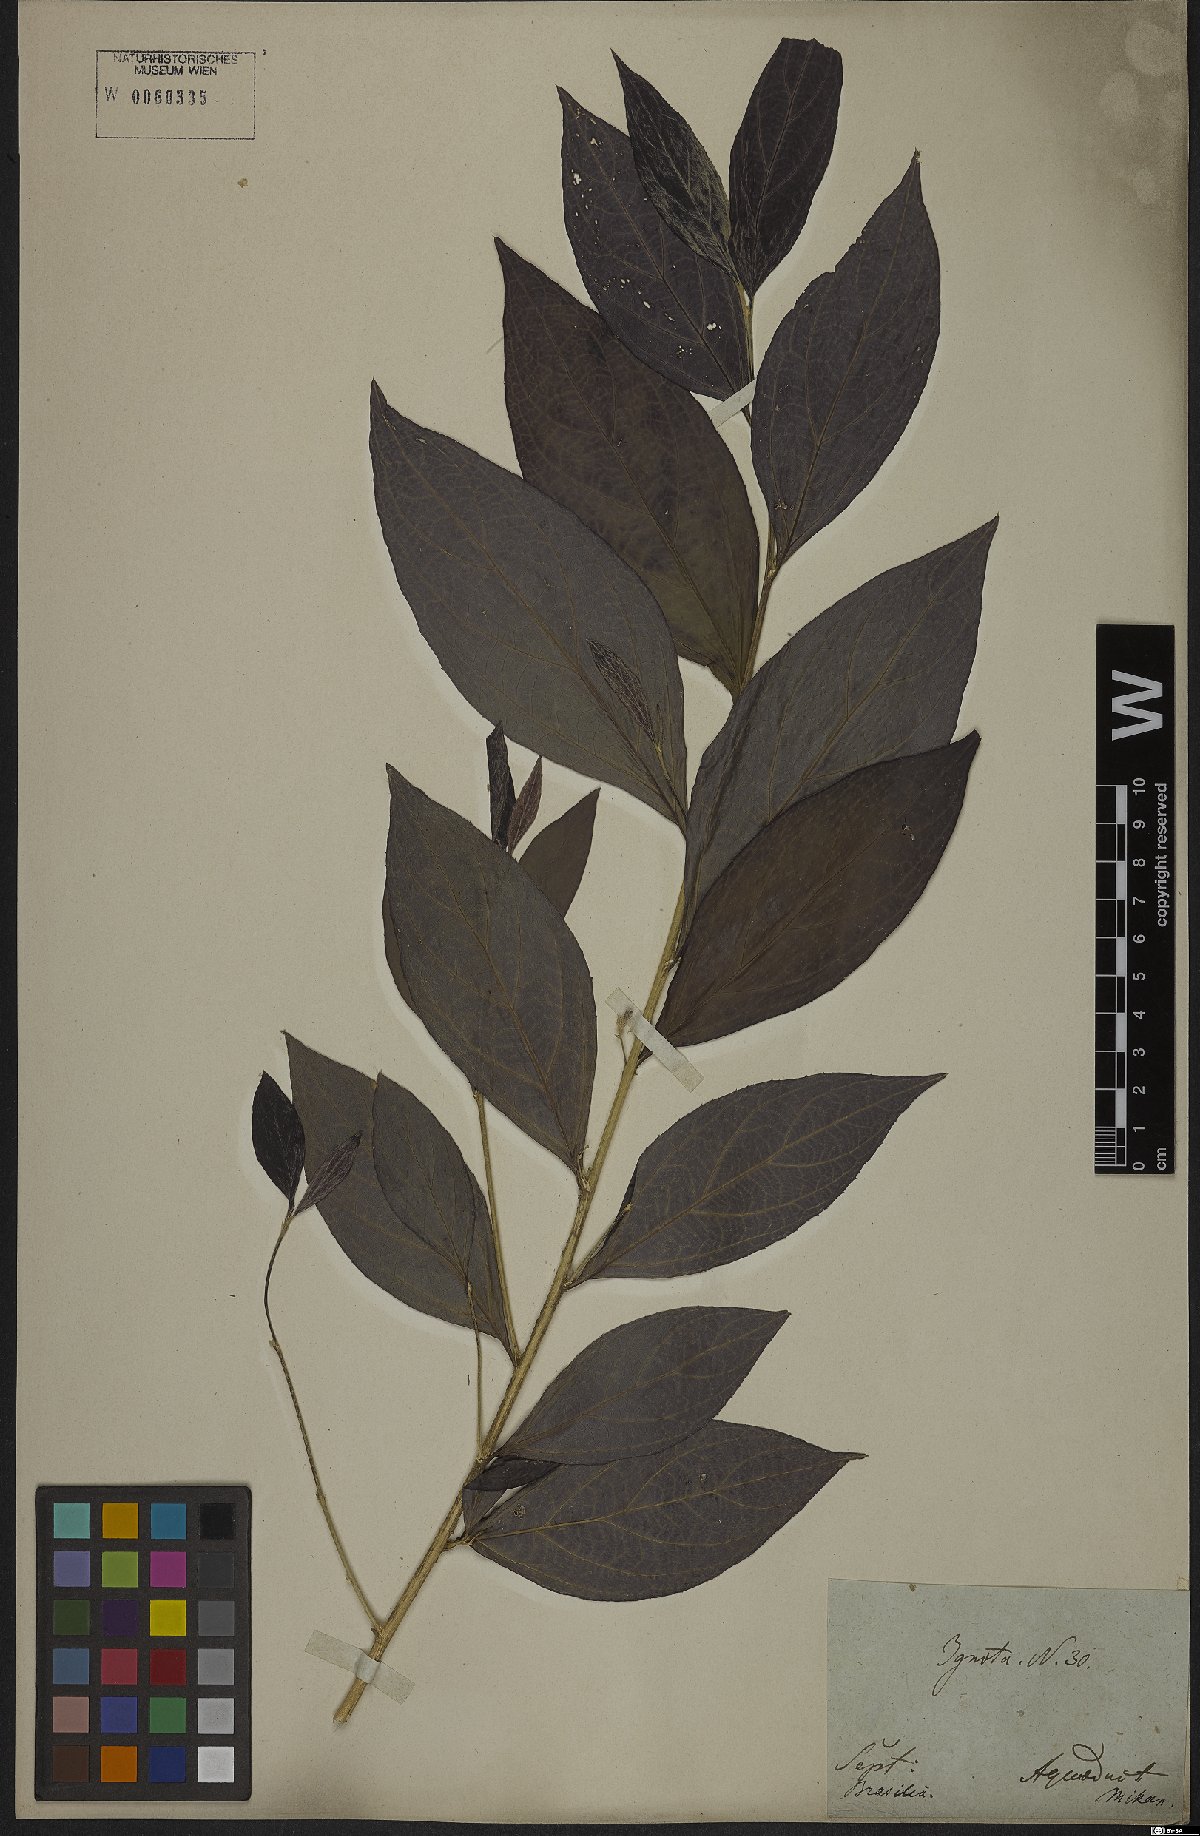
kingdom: Plantae
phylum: Tracheophyta
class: Magnoliopsida
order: Malpighiales
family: Euphorbiaceae
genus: Ditaxis
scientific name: Ditaxis simoniana
